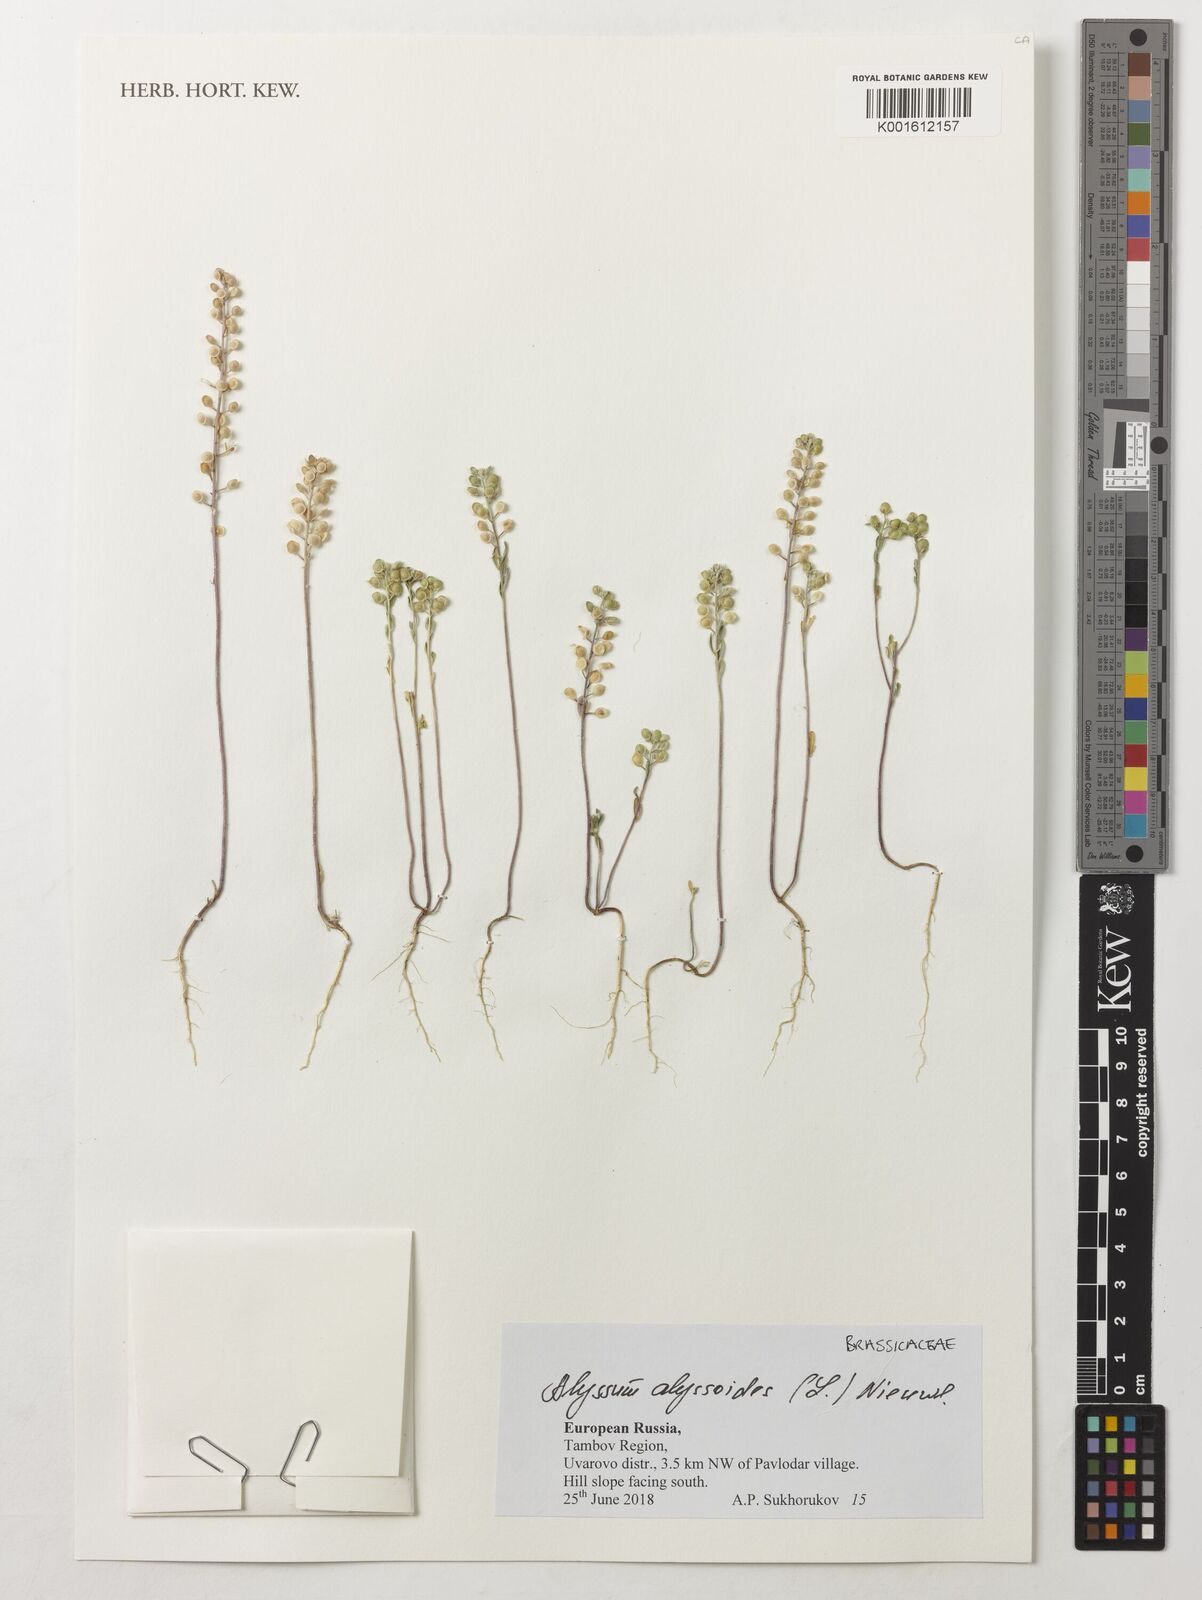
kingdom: Plantae
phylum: Tracheophyta
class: Magnoliopsida
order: Brassicales
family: Brassicaceae
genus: Alyssum
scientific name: Alyssum alyssoides
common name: Small alison
